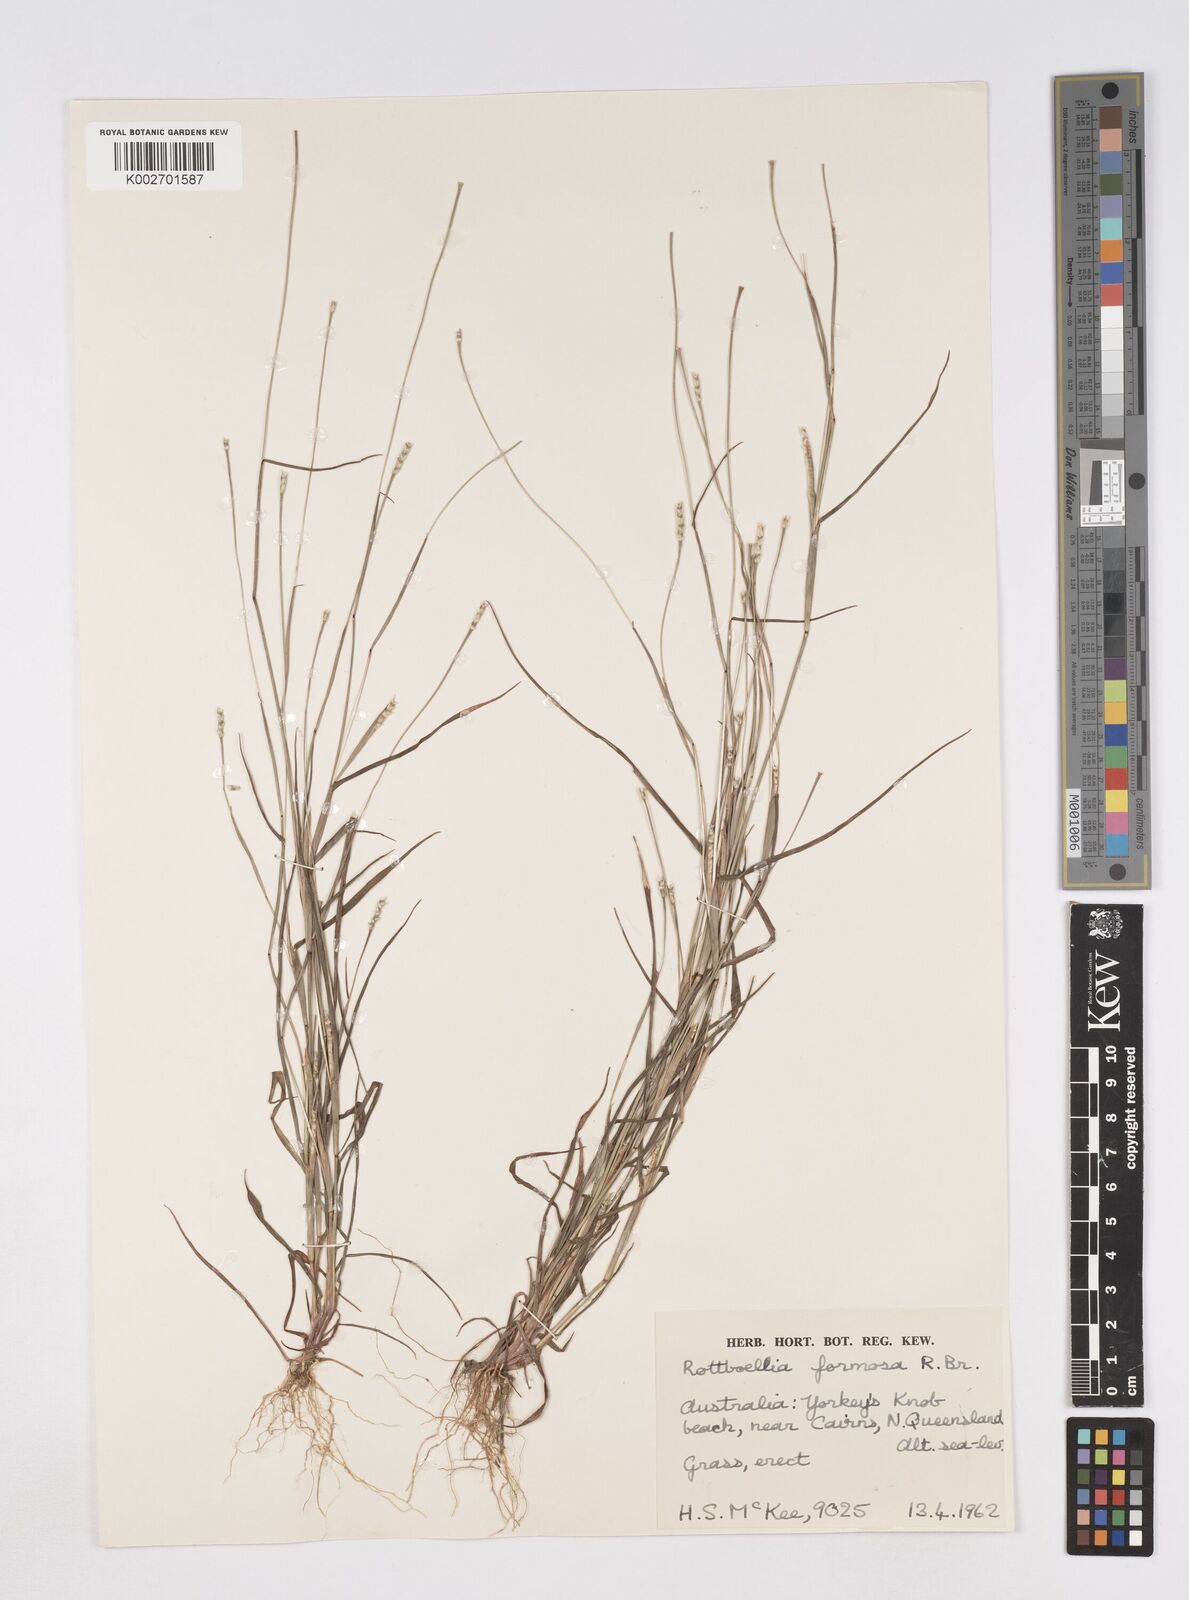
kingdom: Plantae
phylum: Tracheophyta
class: Liliopsida
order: Poales
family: Poaceae
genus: Heteropholis
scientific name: Heteropholis
